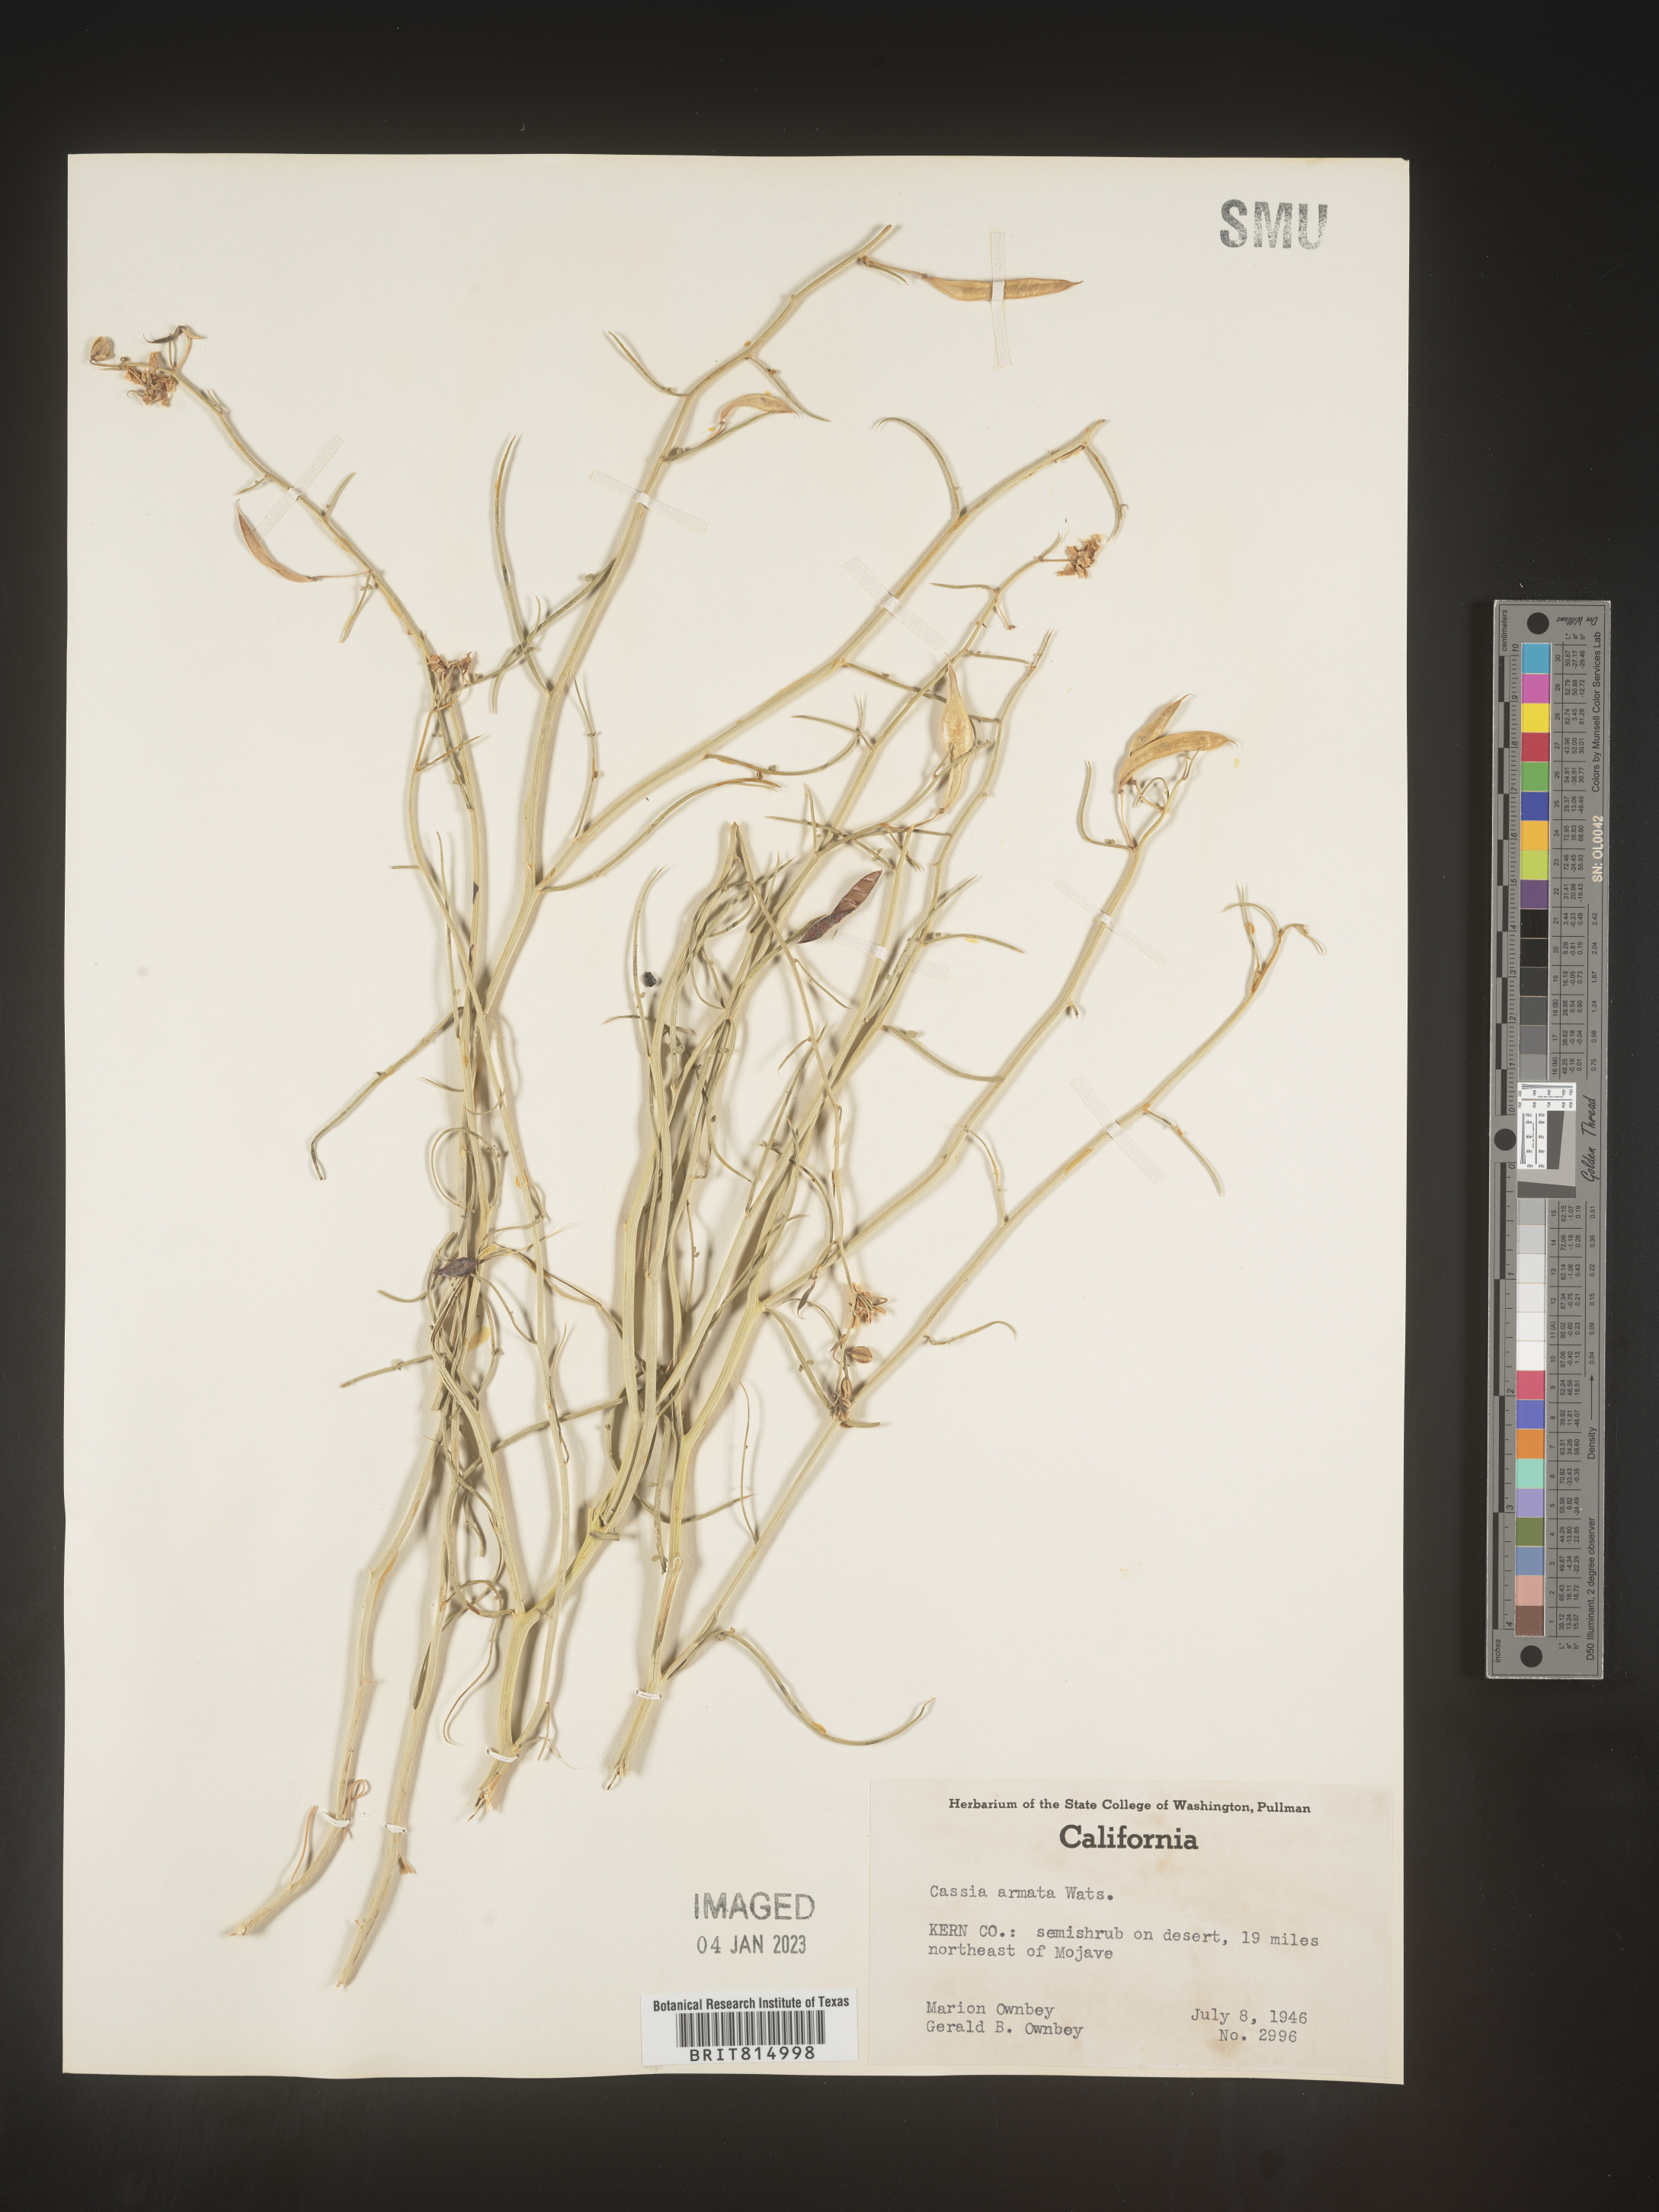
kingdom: Plantae
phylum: Tracheophyta
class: Magnoliopsida
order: Fabales
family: Fabaceae
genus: Cassia
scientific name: Cassia
